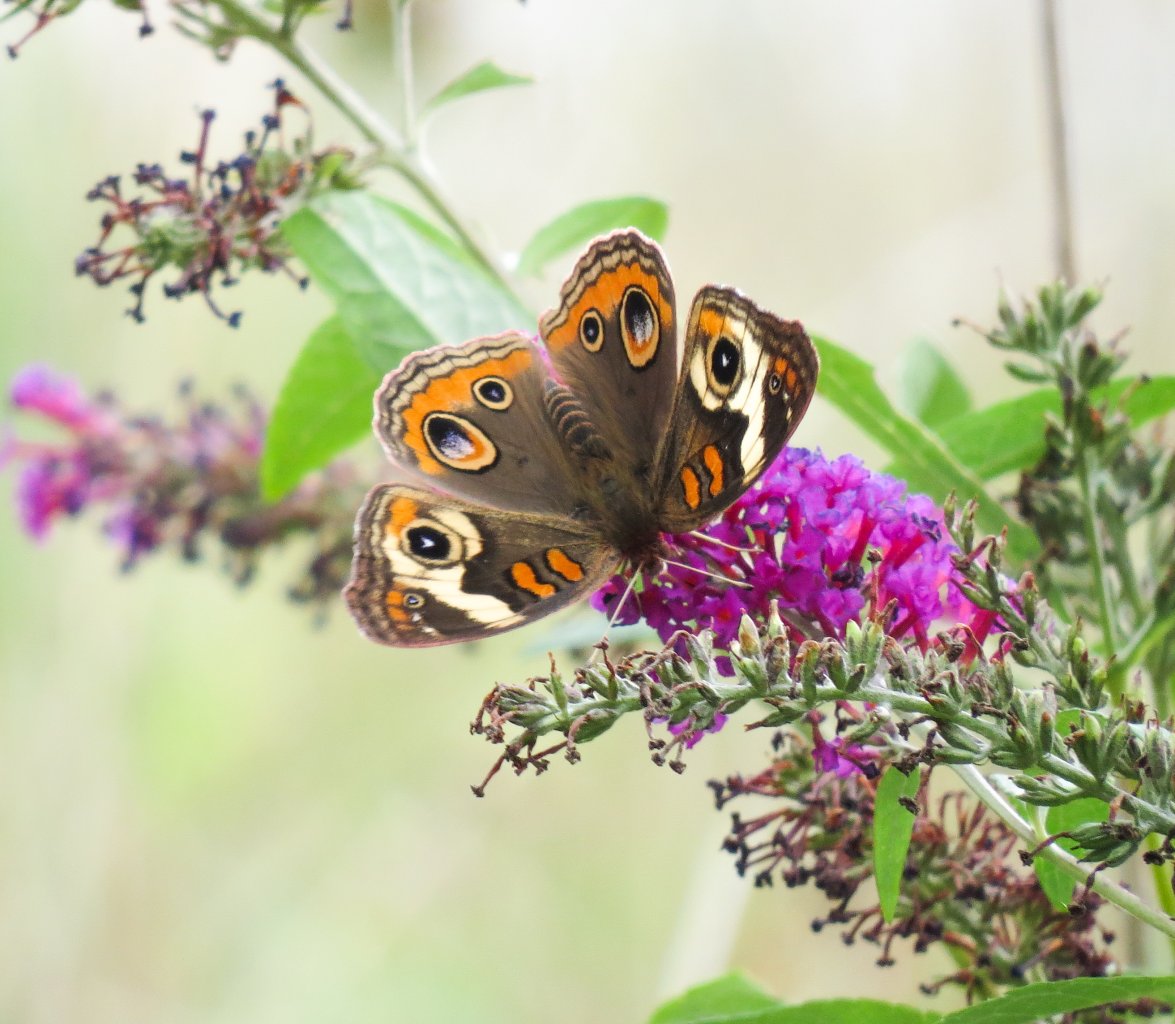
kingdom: Animalia
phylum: Arthropoda
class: Insecta
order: Lepidoptera
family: Nymphalidae
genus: Junonia
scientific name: Junonia coenia
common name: Common Buckeye
